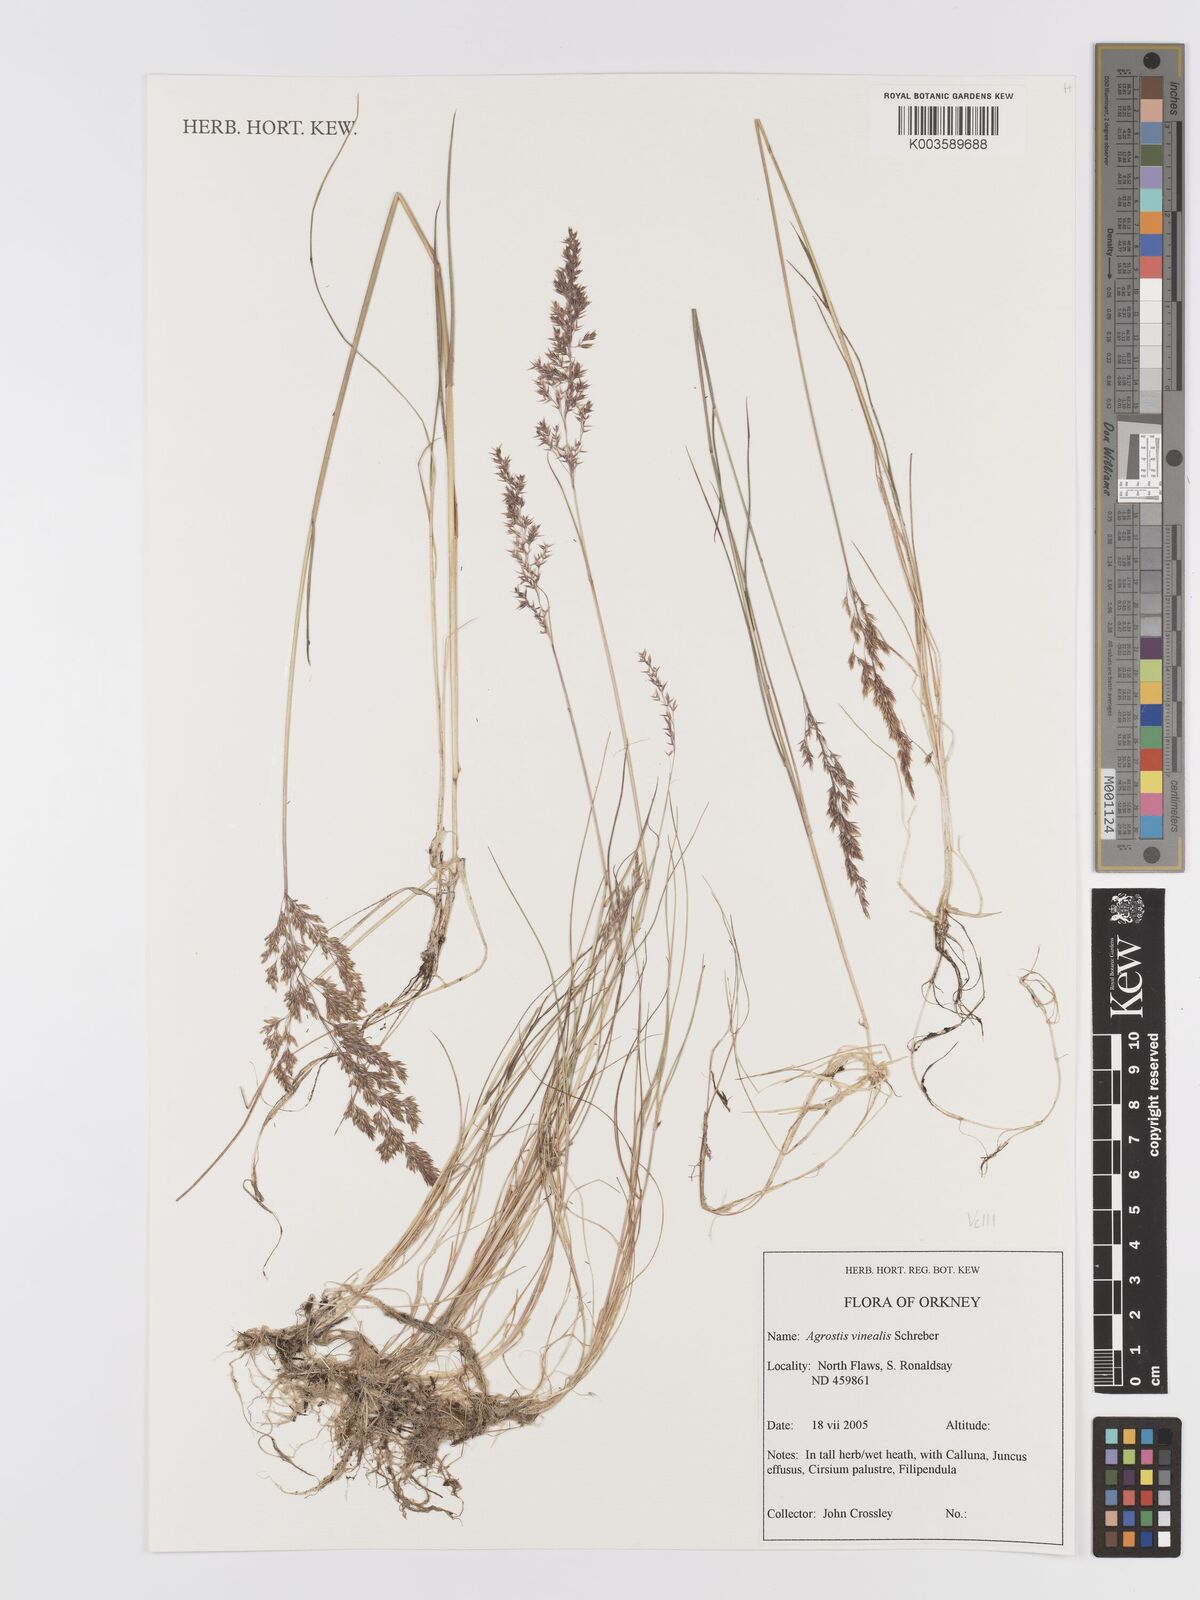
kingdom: Plantae
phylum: Tracheophyta
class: Liliopsida
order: Poales
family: Poaceae
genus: Agrostis
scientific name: Agrostis
